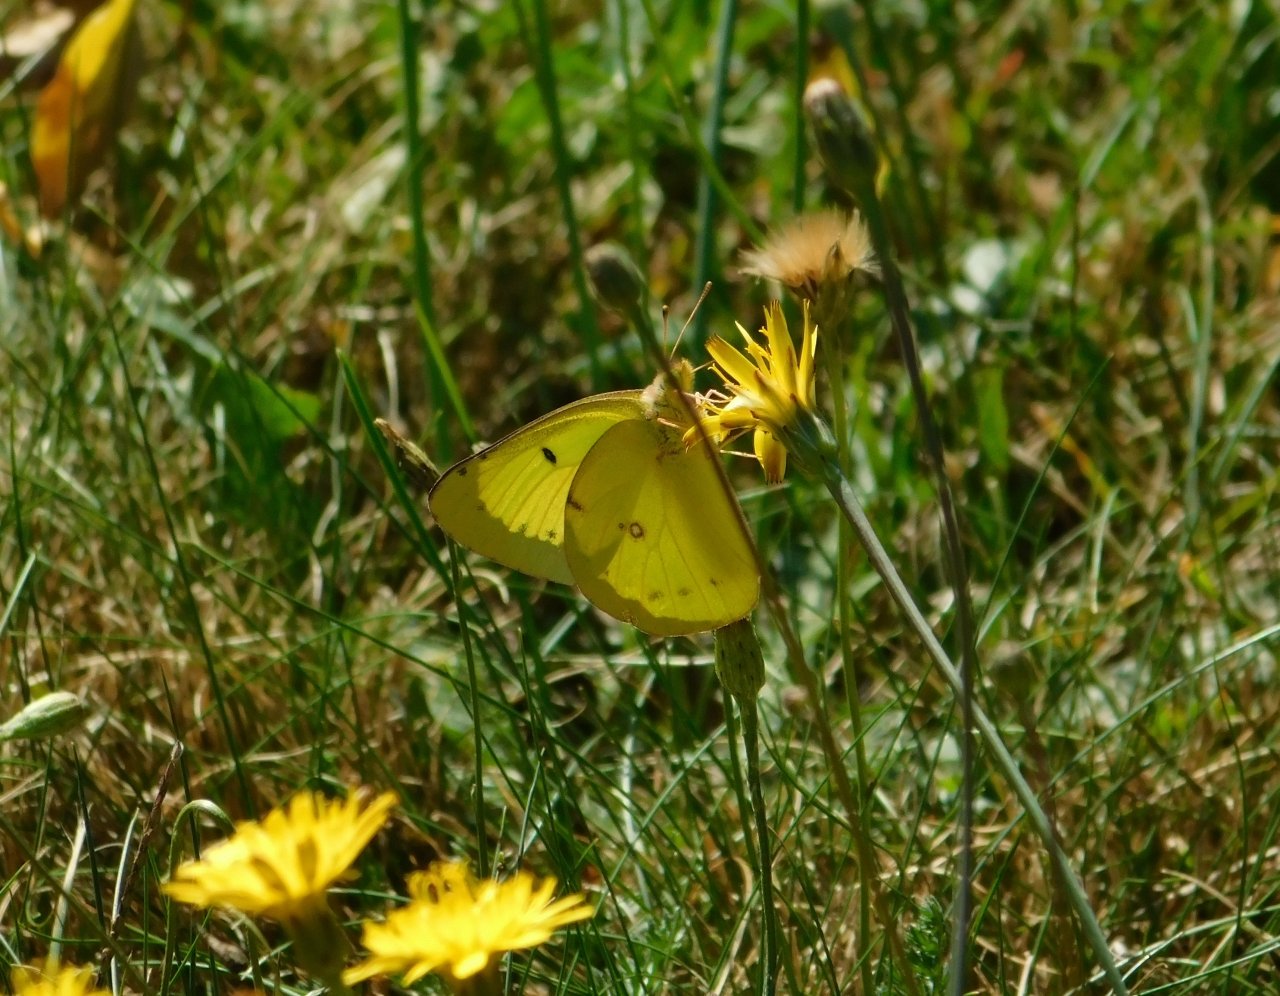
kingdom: Animalia
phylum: Arthropoda
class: Insecta
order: Lepidoptera
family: Pieridae
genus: Colias
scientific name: Colias philodice
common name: Clouded Sulphur
